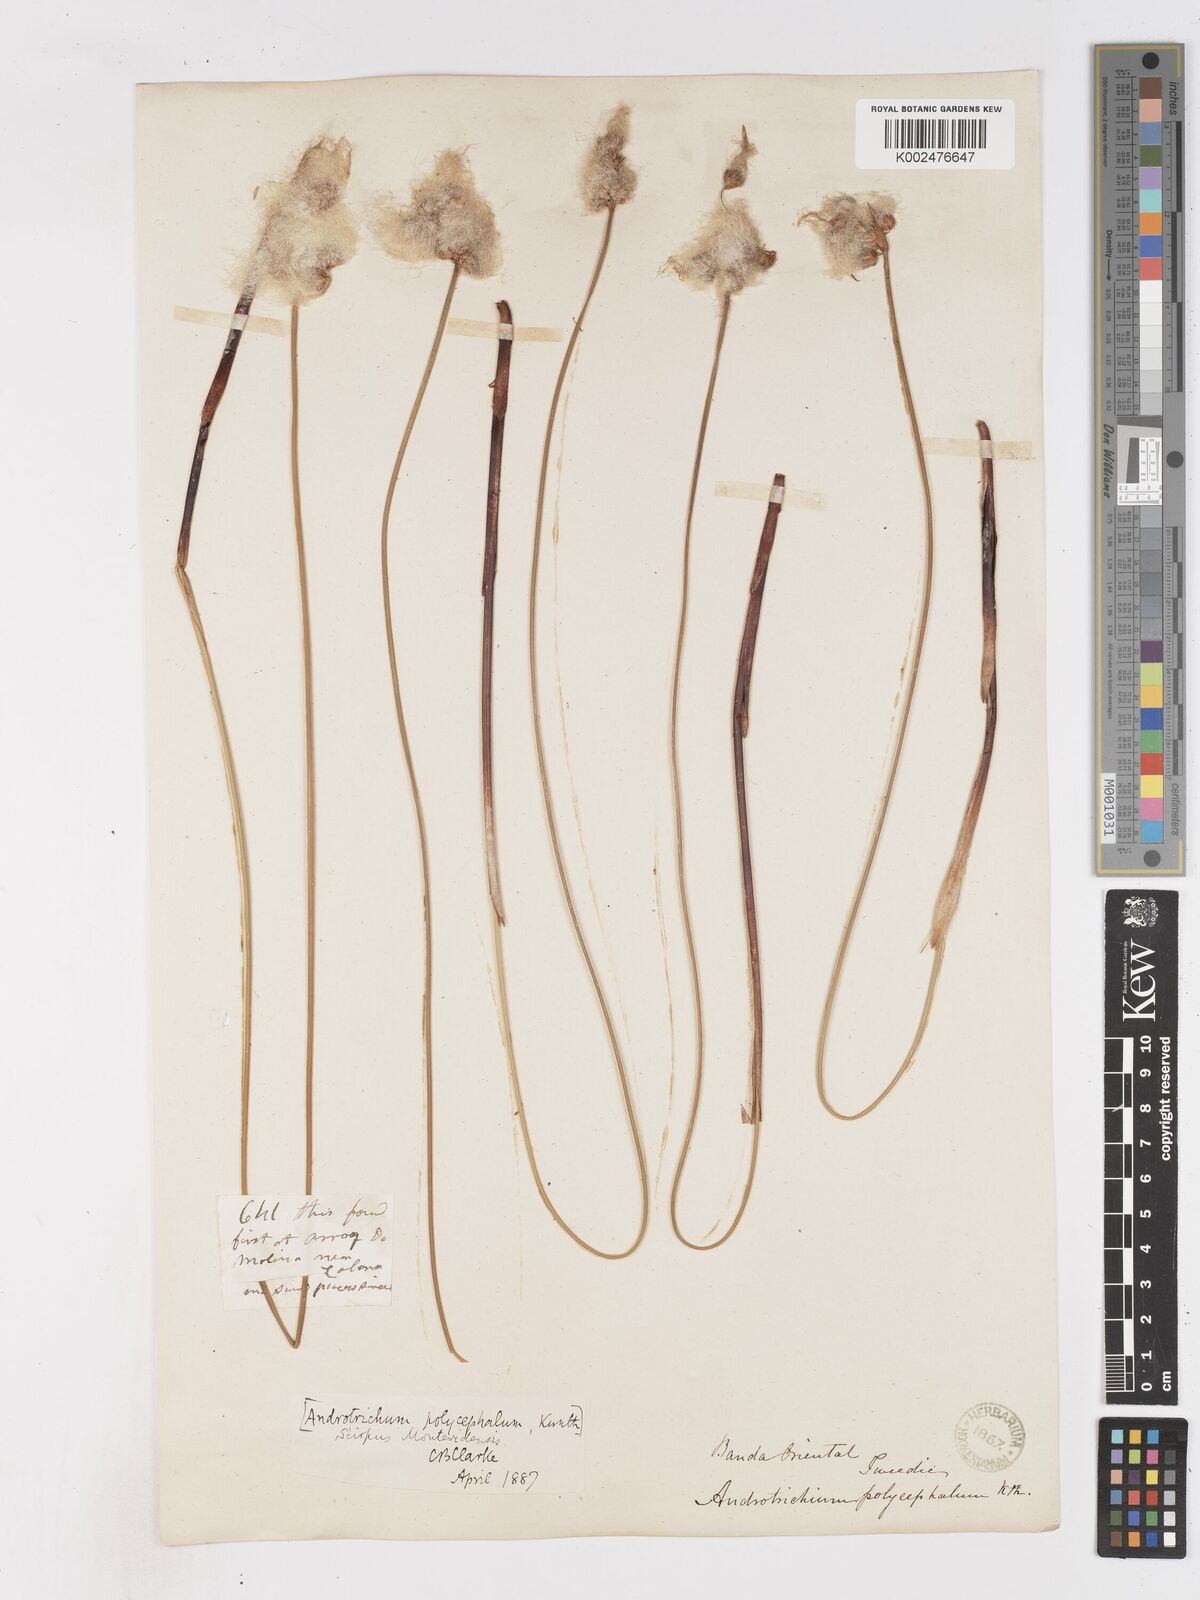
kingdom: Plantae
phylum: Tracheophyta
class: Liliopsida
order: Poales
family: Cyperaceae
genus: Cyperus
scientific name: Cyperus trigynus
